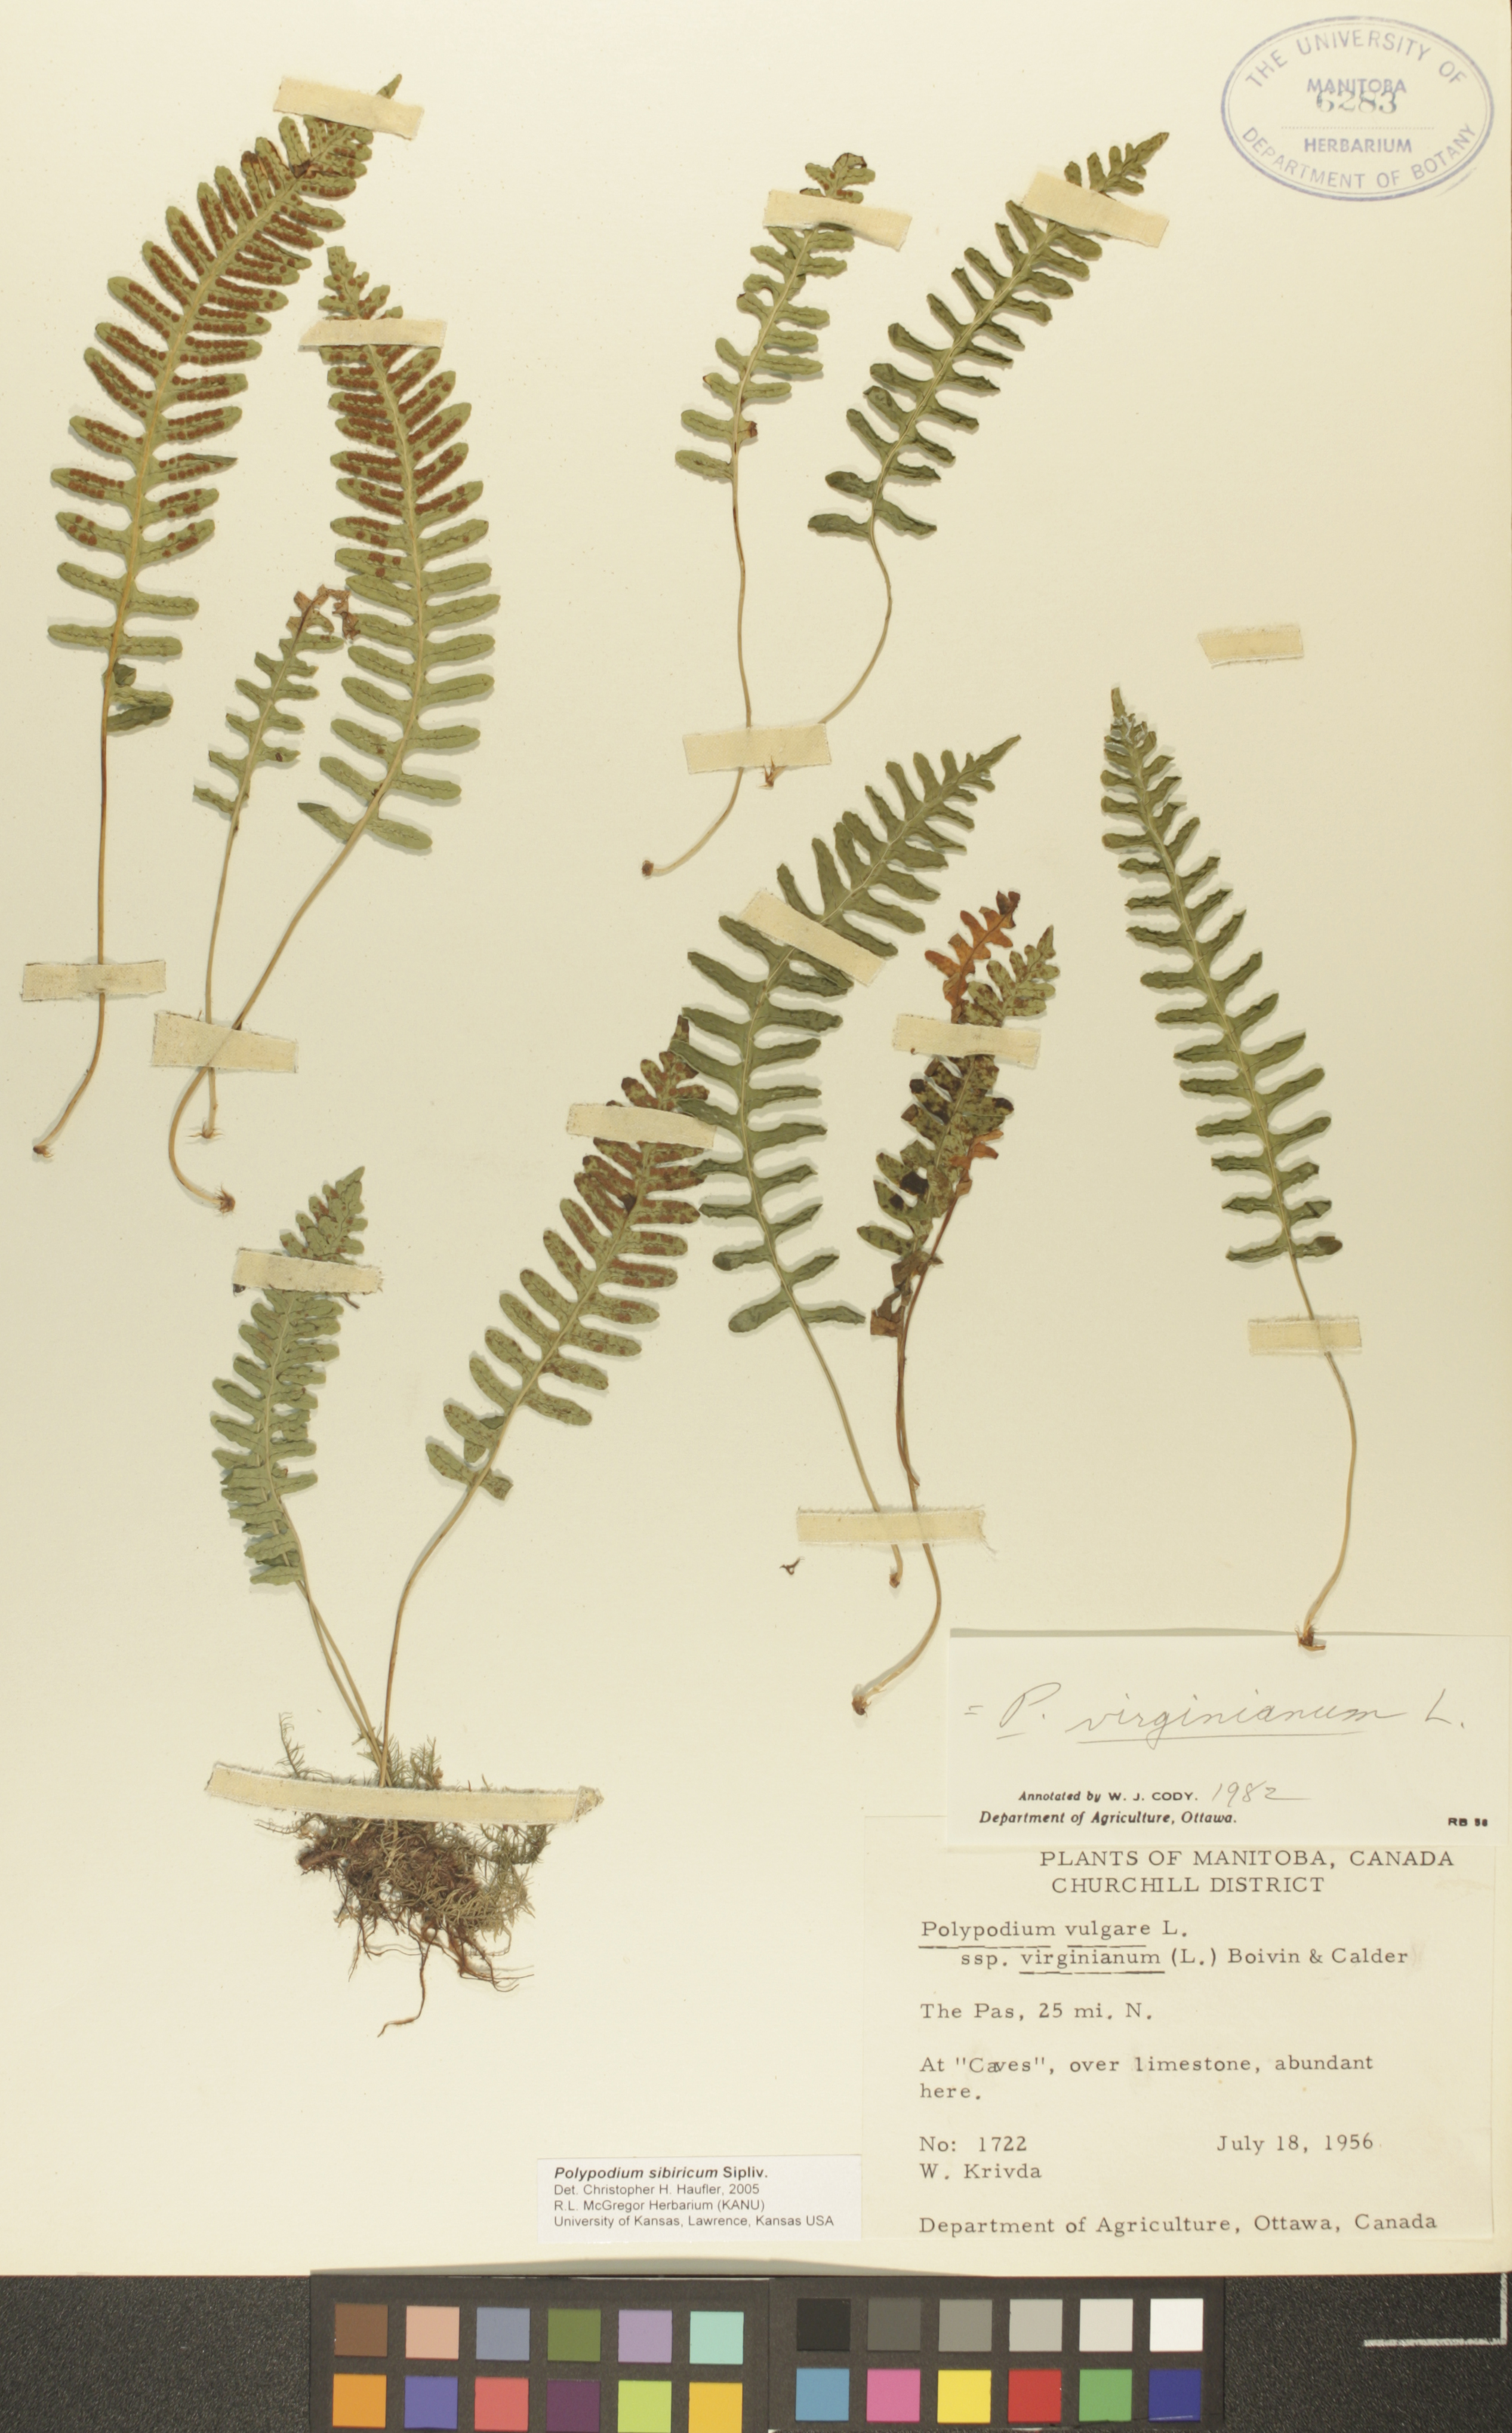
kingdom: Plantae
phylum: Tracheophyta
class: Polypodiopsida
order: Polypodiales
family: Polypodiaceae
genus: Polypodium
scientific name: Polypodium sibiricum
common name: Siberian polypody
